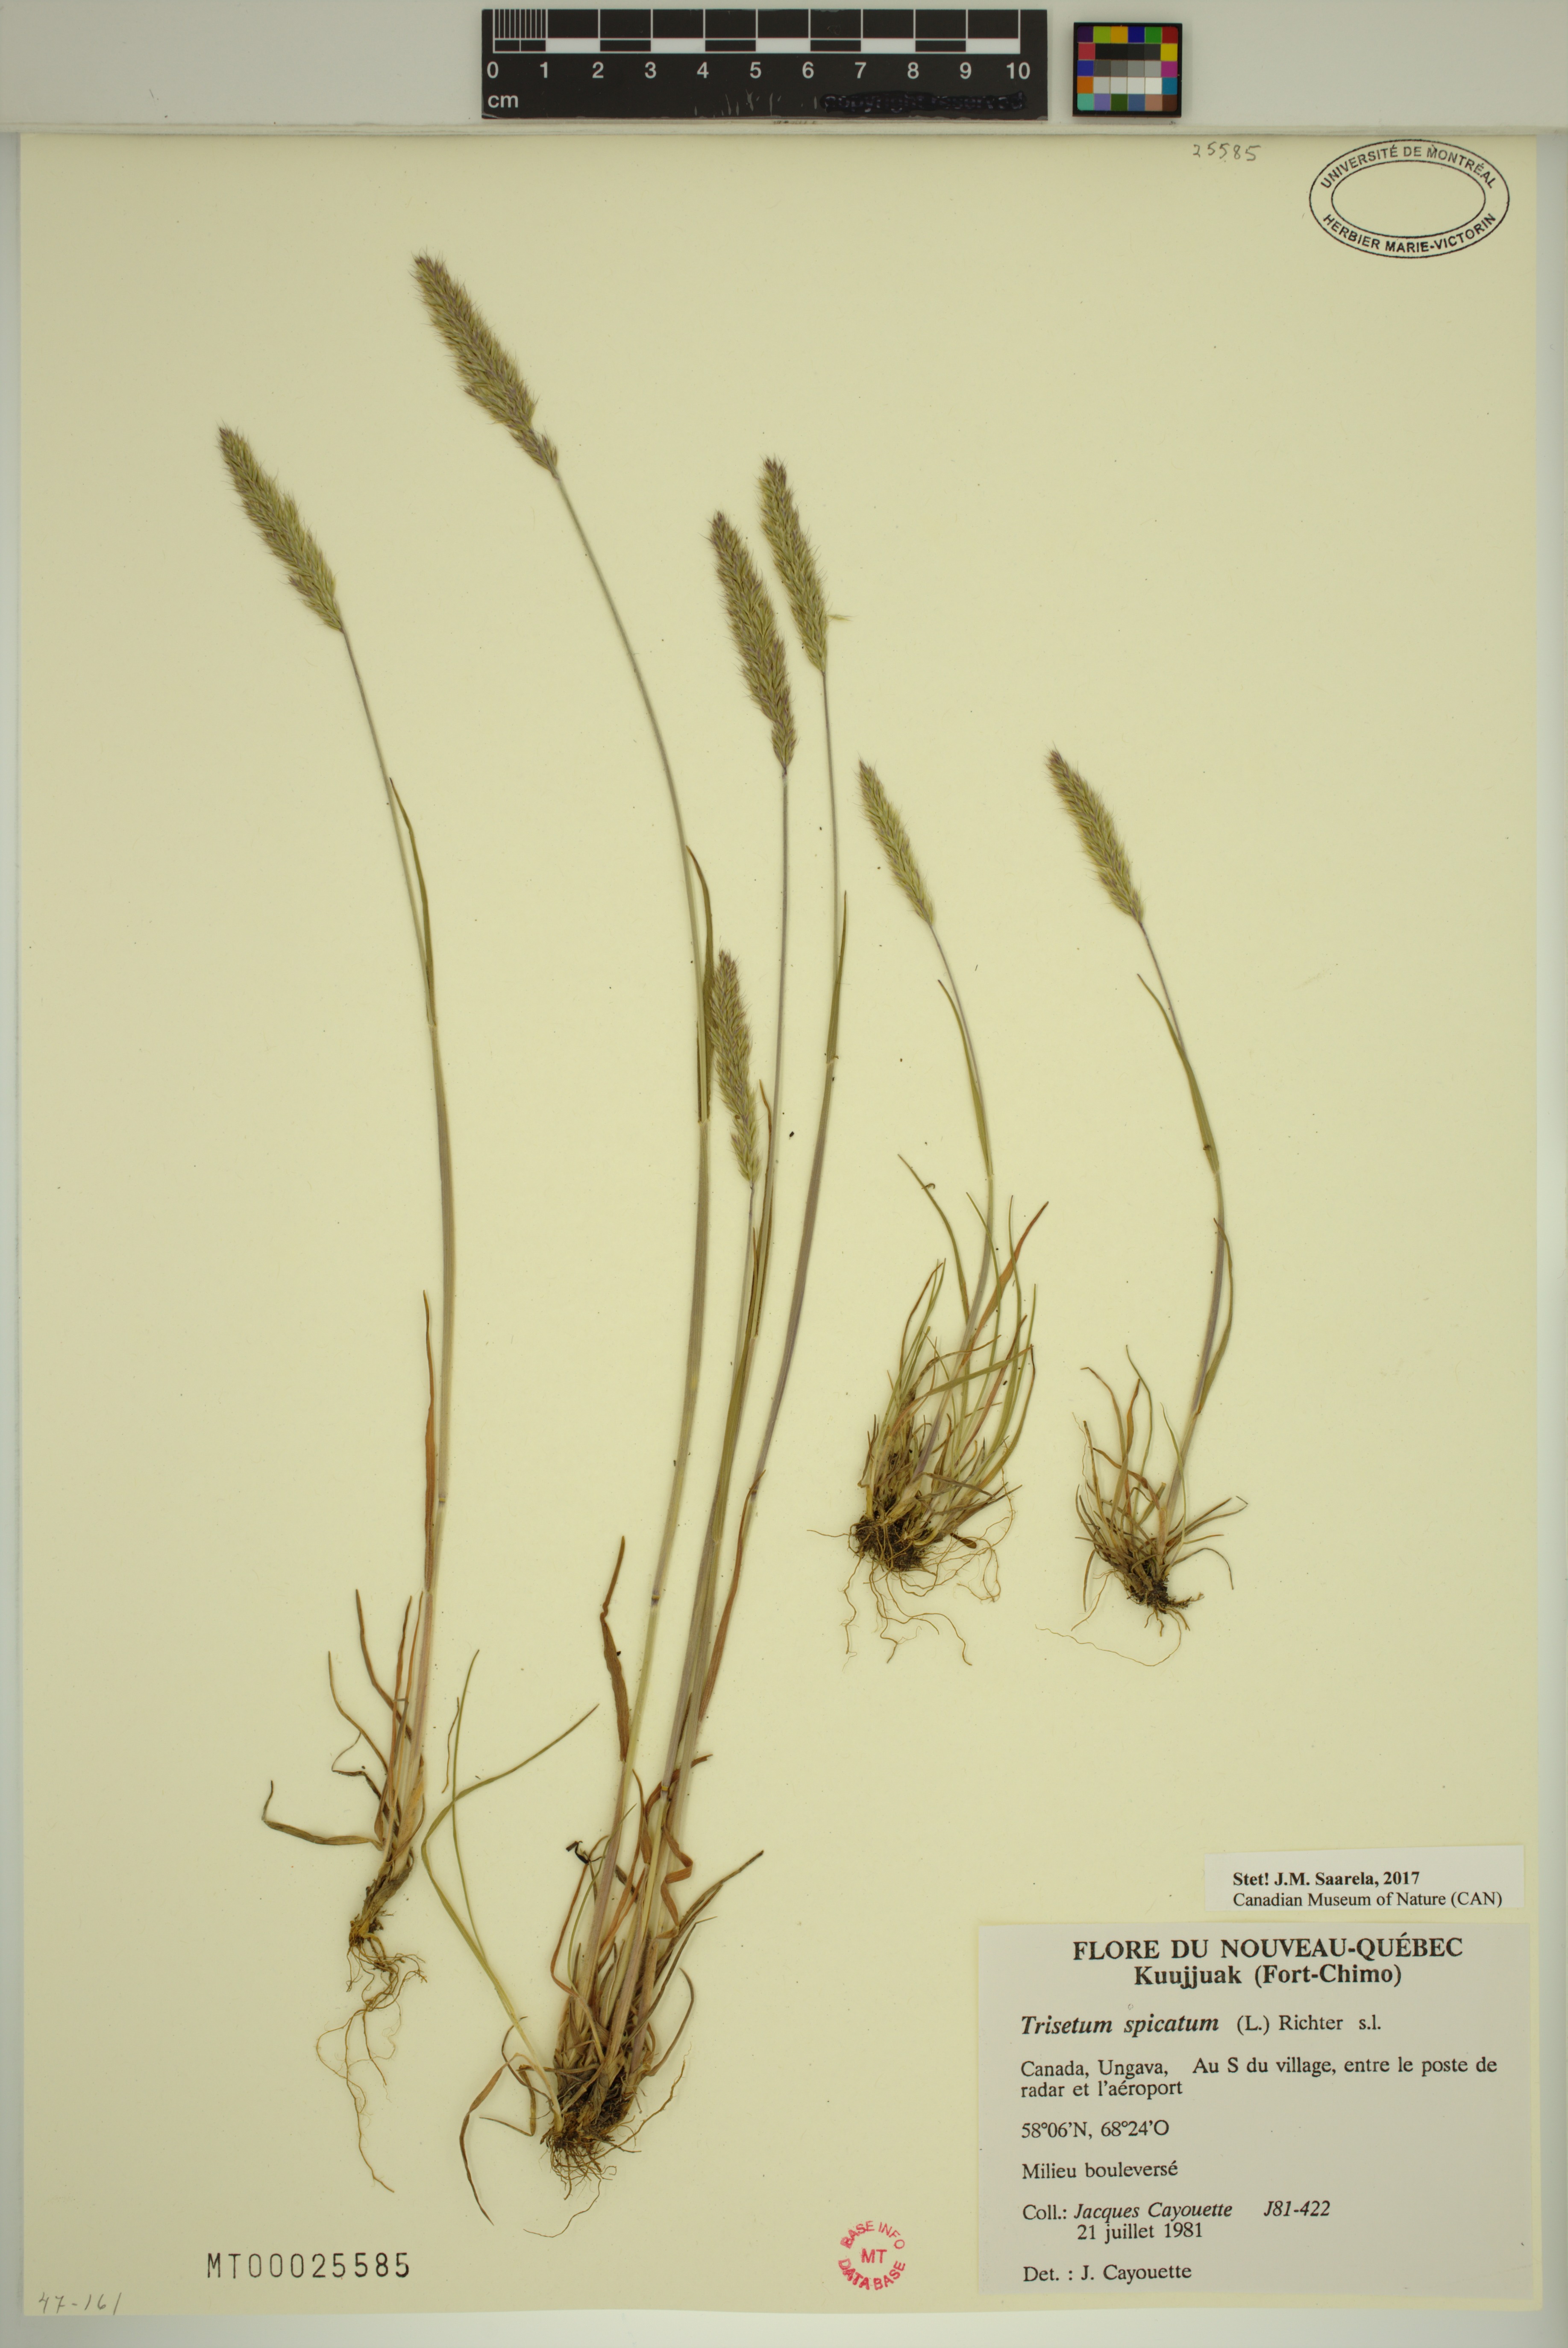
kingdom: Plantae
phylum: Tracheophyta
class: Liliopsida
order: Poales
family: Poaceae
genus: Koeleria
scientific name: Koeleria spicata
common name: Mountain trisetum
